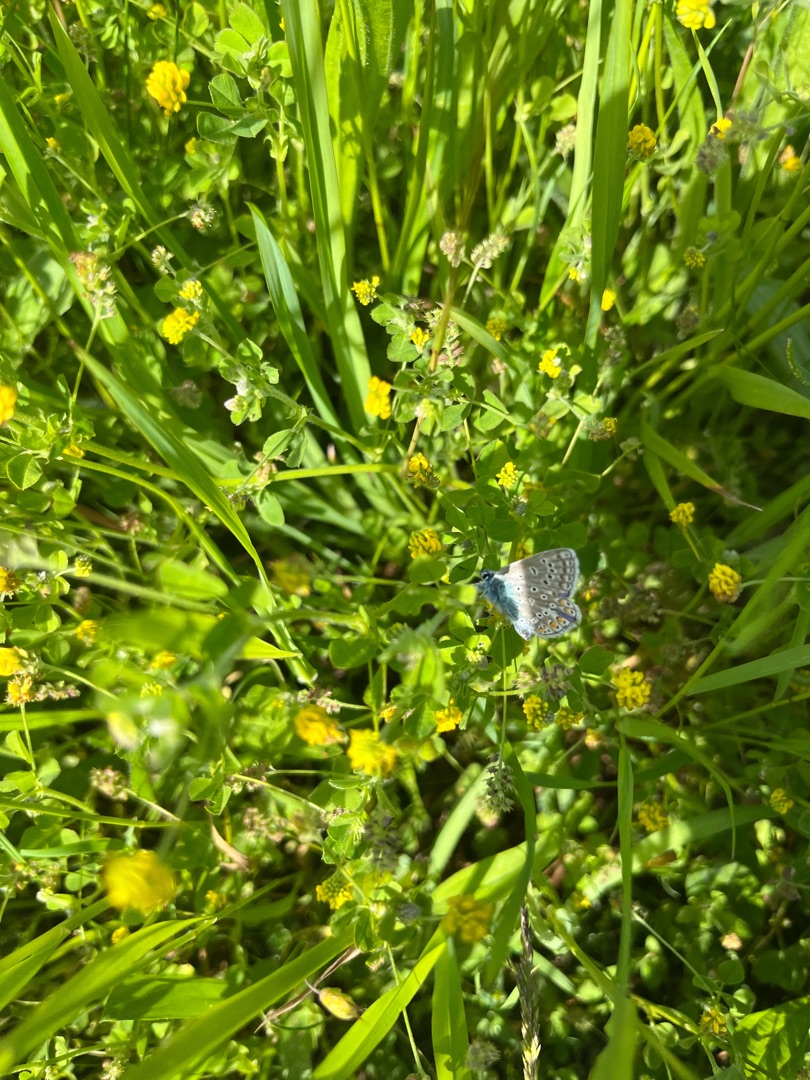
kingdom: Animalia
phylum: Arthropoda
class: Insecta
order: Lepidoptera
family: Lycaenidae
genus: Polyommatus
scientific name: Polyommatus icarus
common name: Almindelig blåfugl
